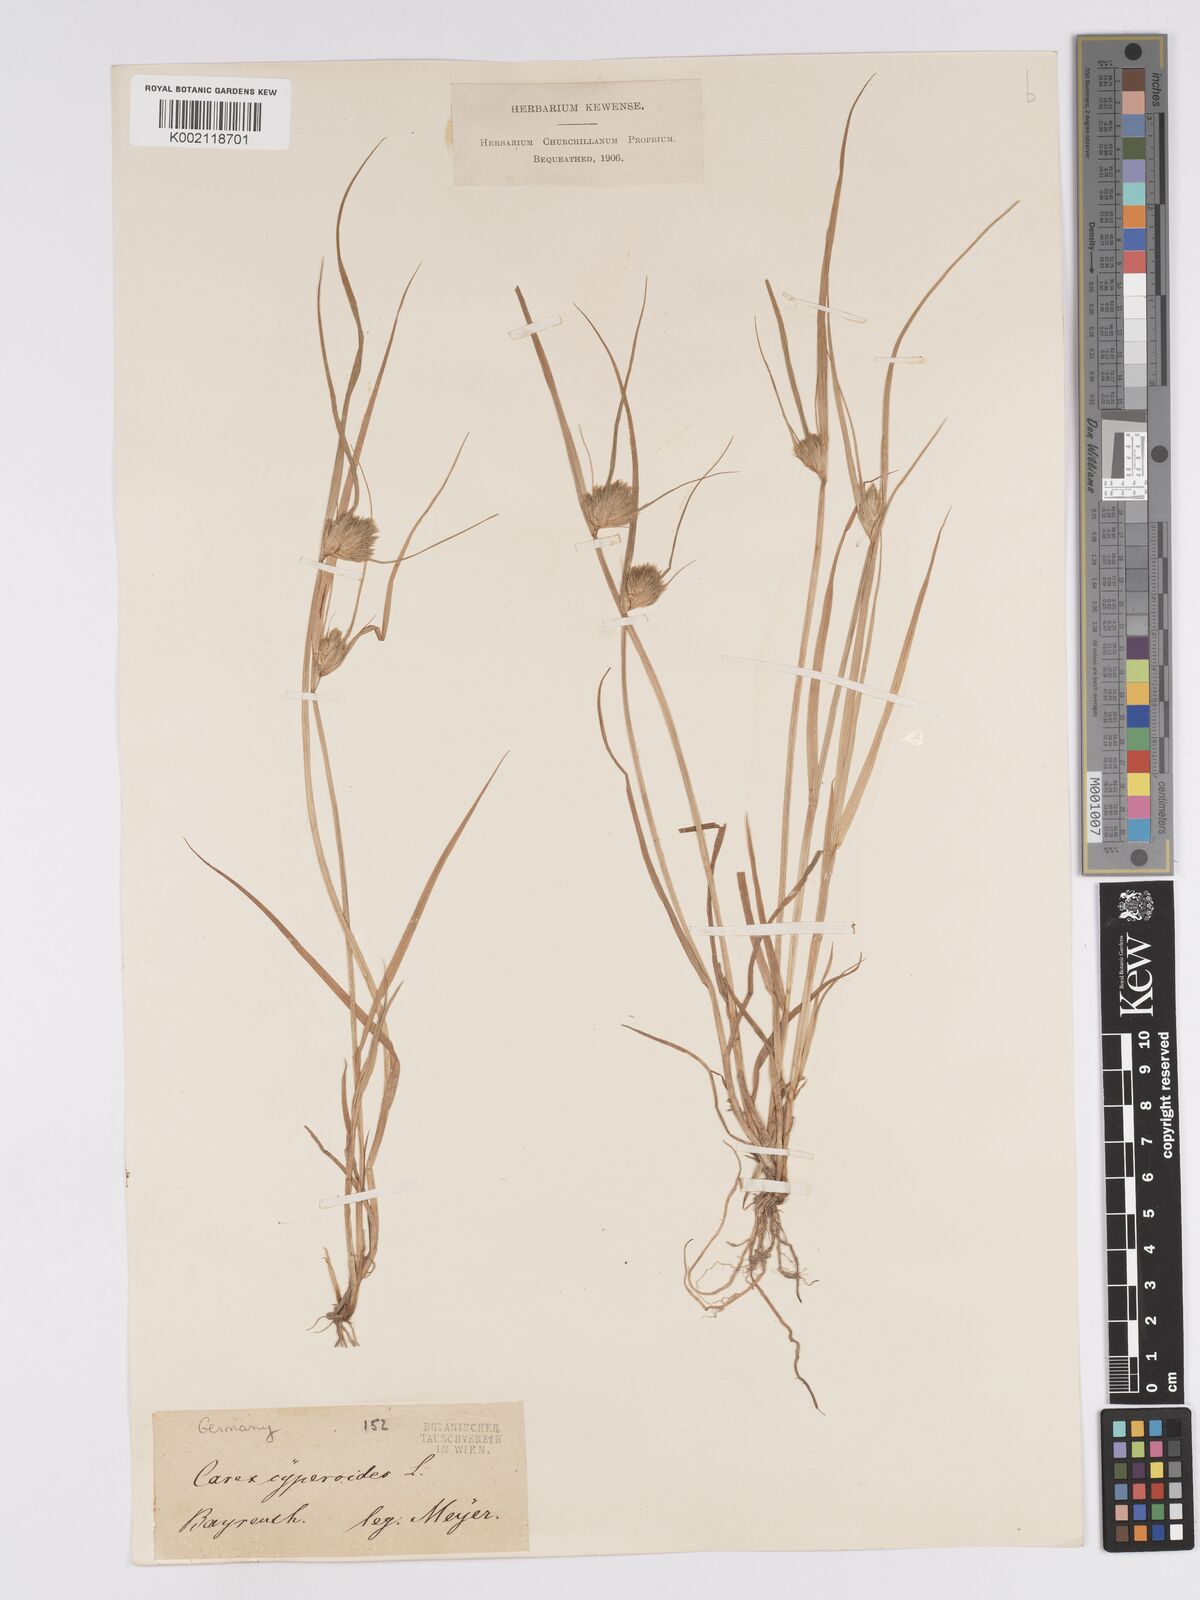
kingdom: Plantae
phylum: Tracheophyta
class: Liliopsida
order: Poales
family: Cyperaceae
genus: Carex
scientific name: Carex bohemica
